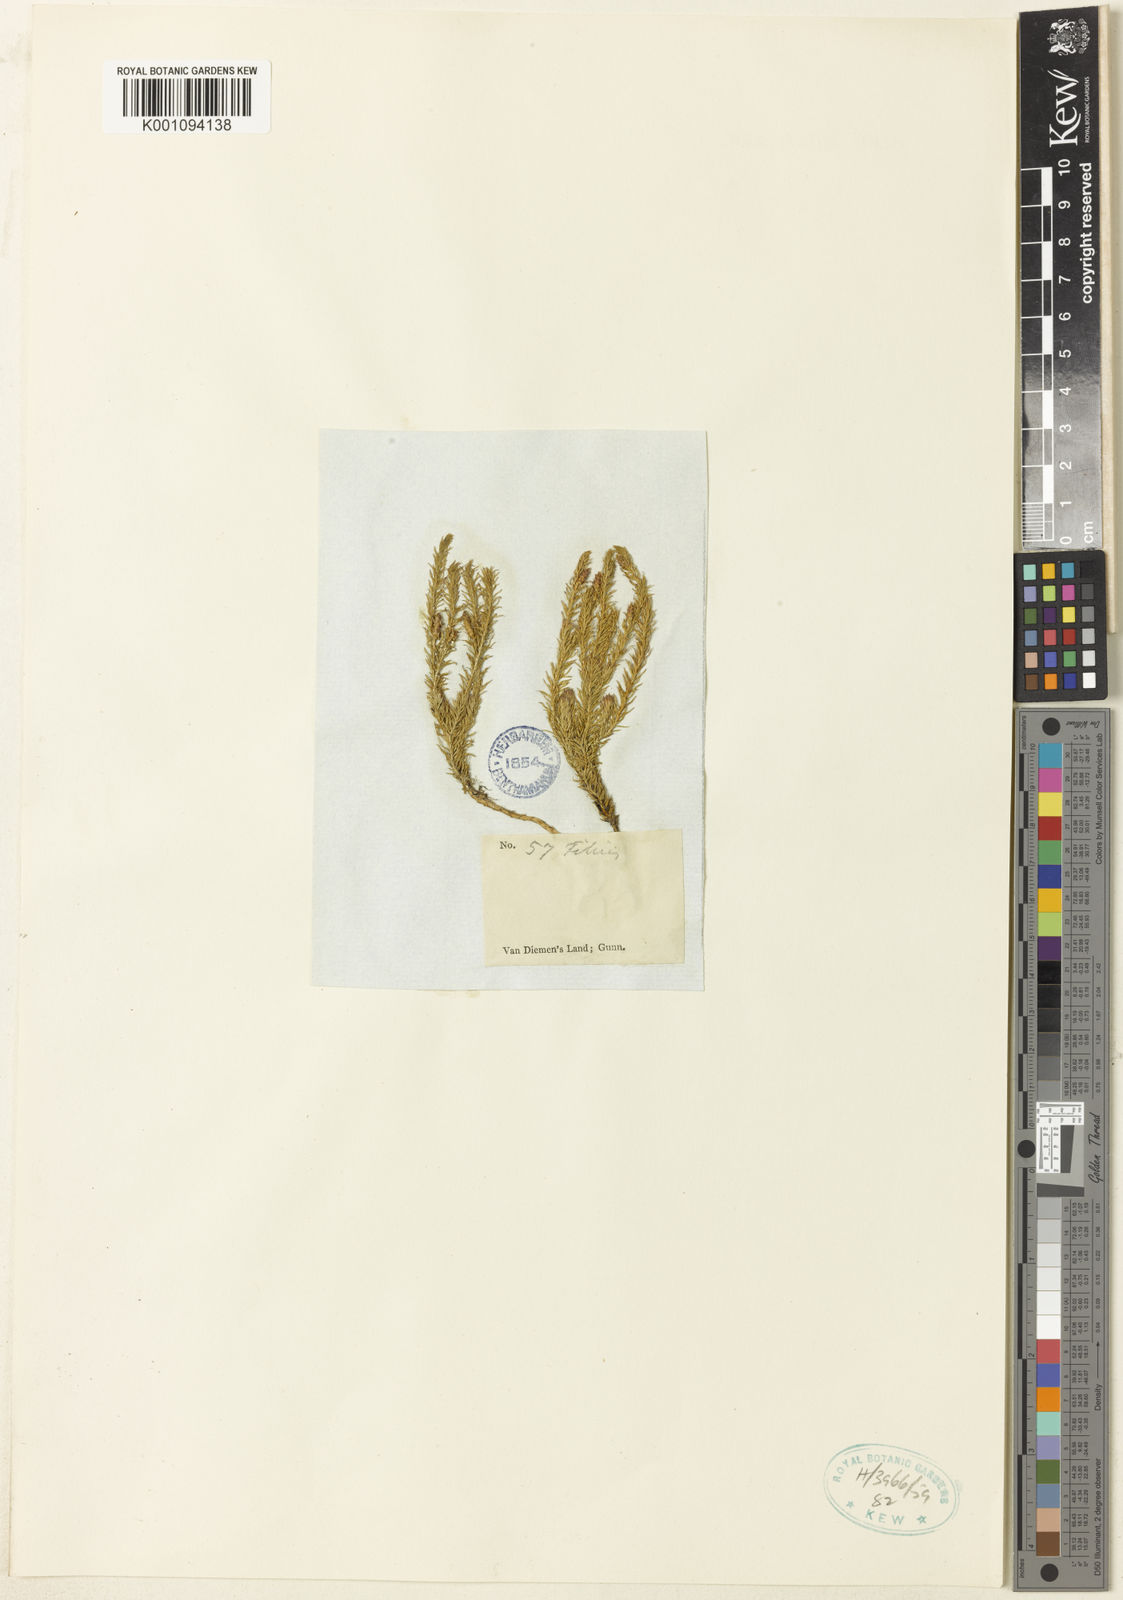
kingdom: Plantae
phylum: Tracheophyta
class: Lycopodiopsida
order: Lycopodiales
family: Lycopodiaceae
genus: Lateristachys
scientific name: Lateristachys lateralis
